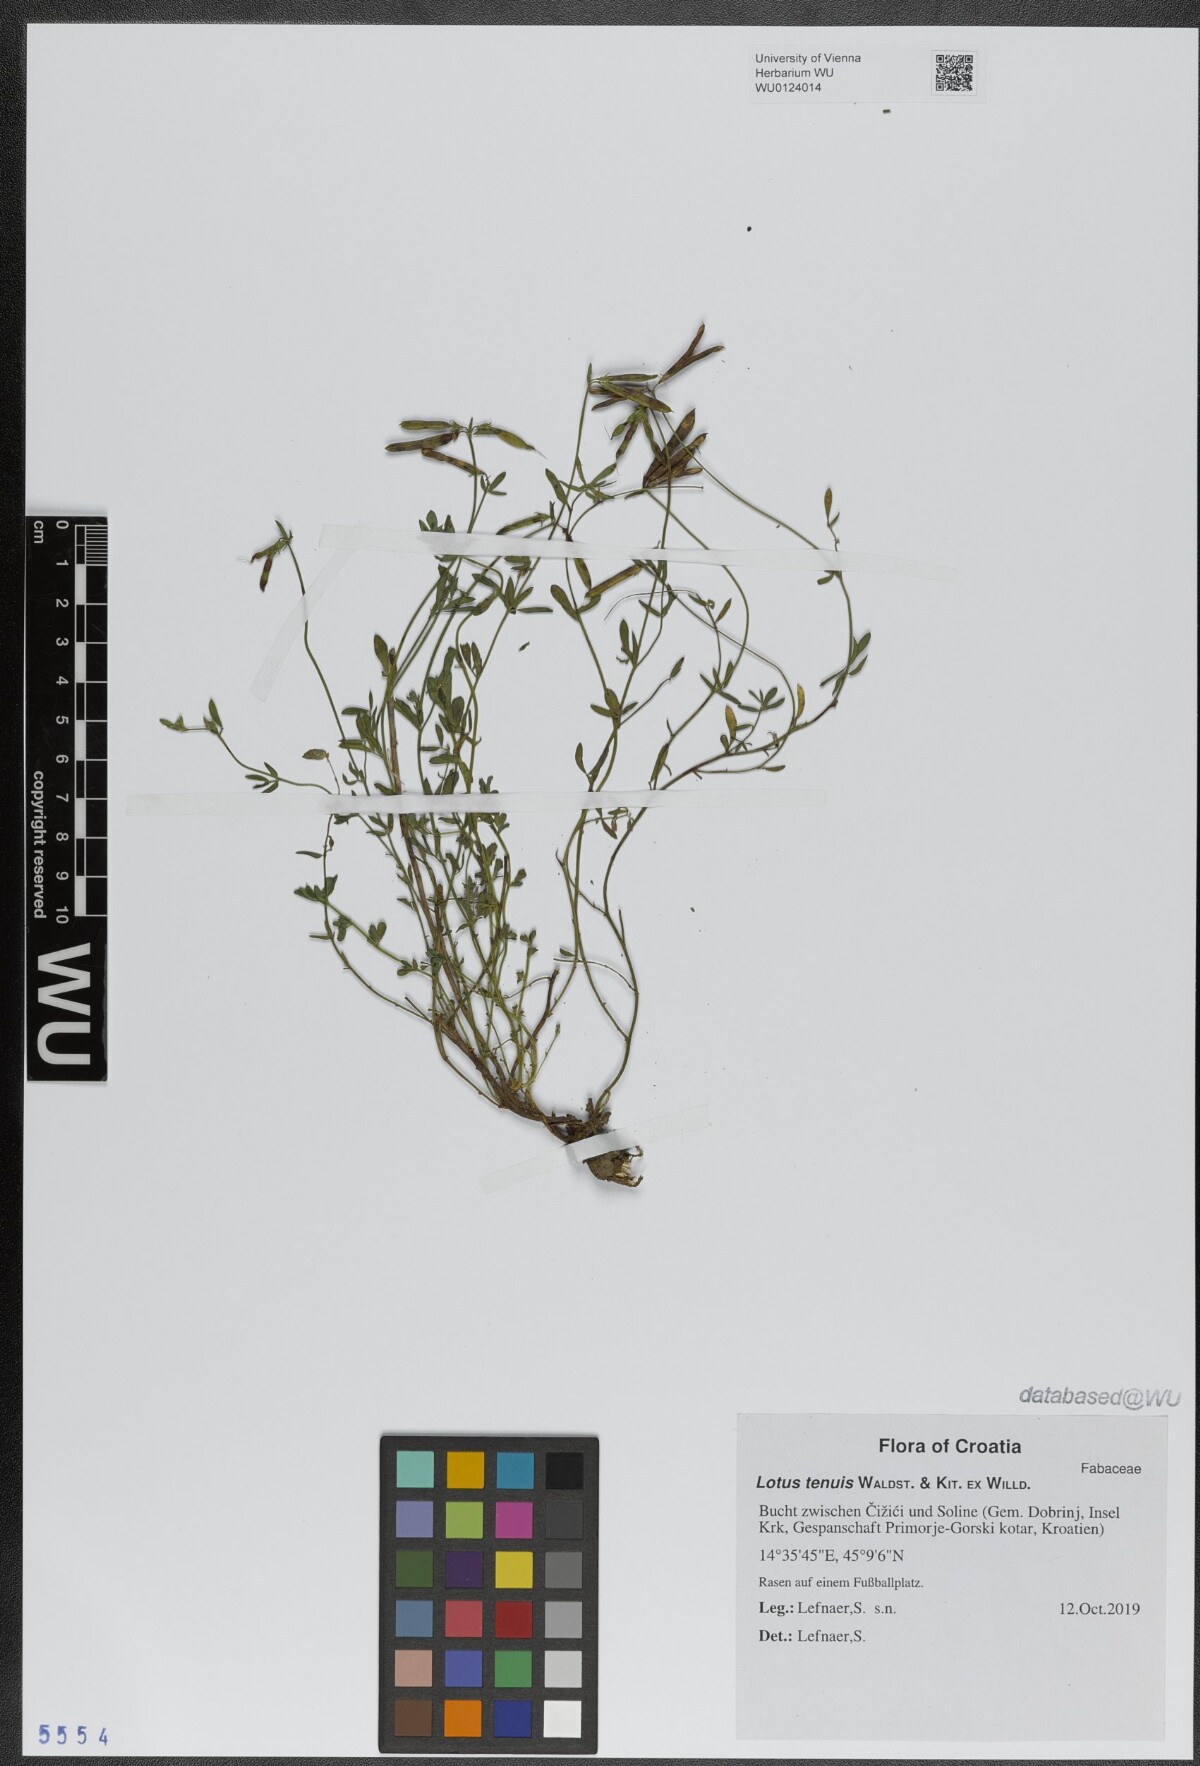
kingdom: Plantae
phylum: Tracheophyta
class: Magnoliopsida
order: Fabales
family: Fabaceae
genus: Lotus
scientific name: Lotus tenuis
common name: Narrow-leaved bird's-foot-trefoil
